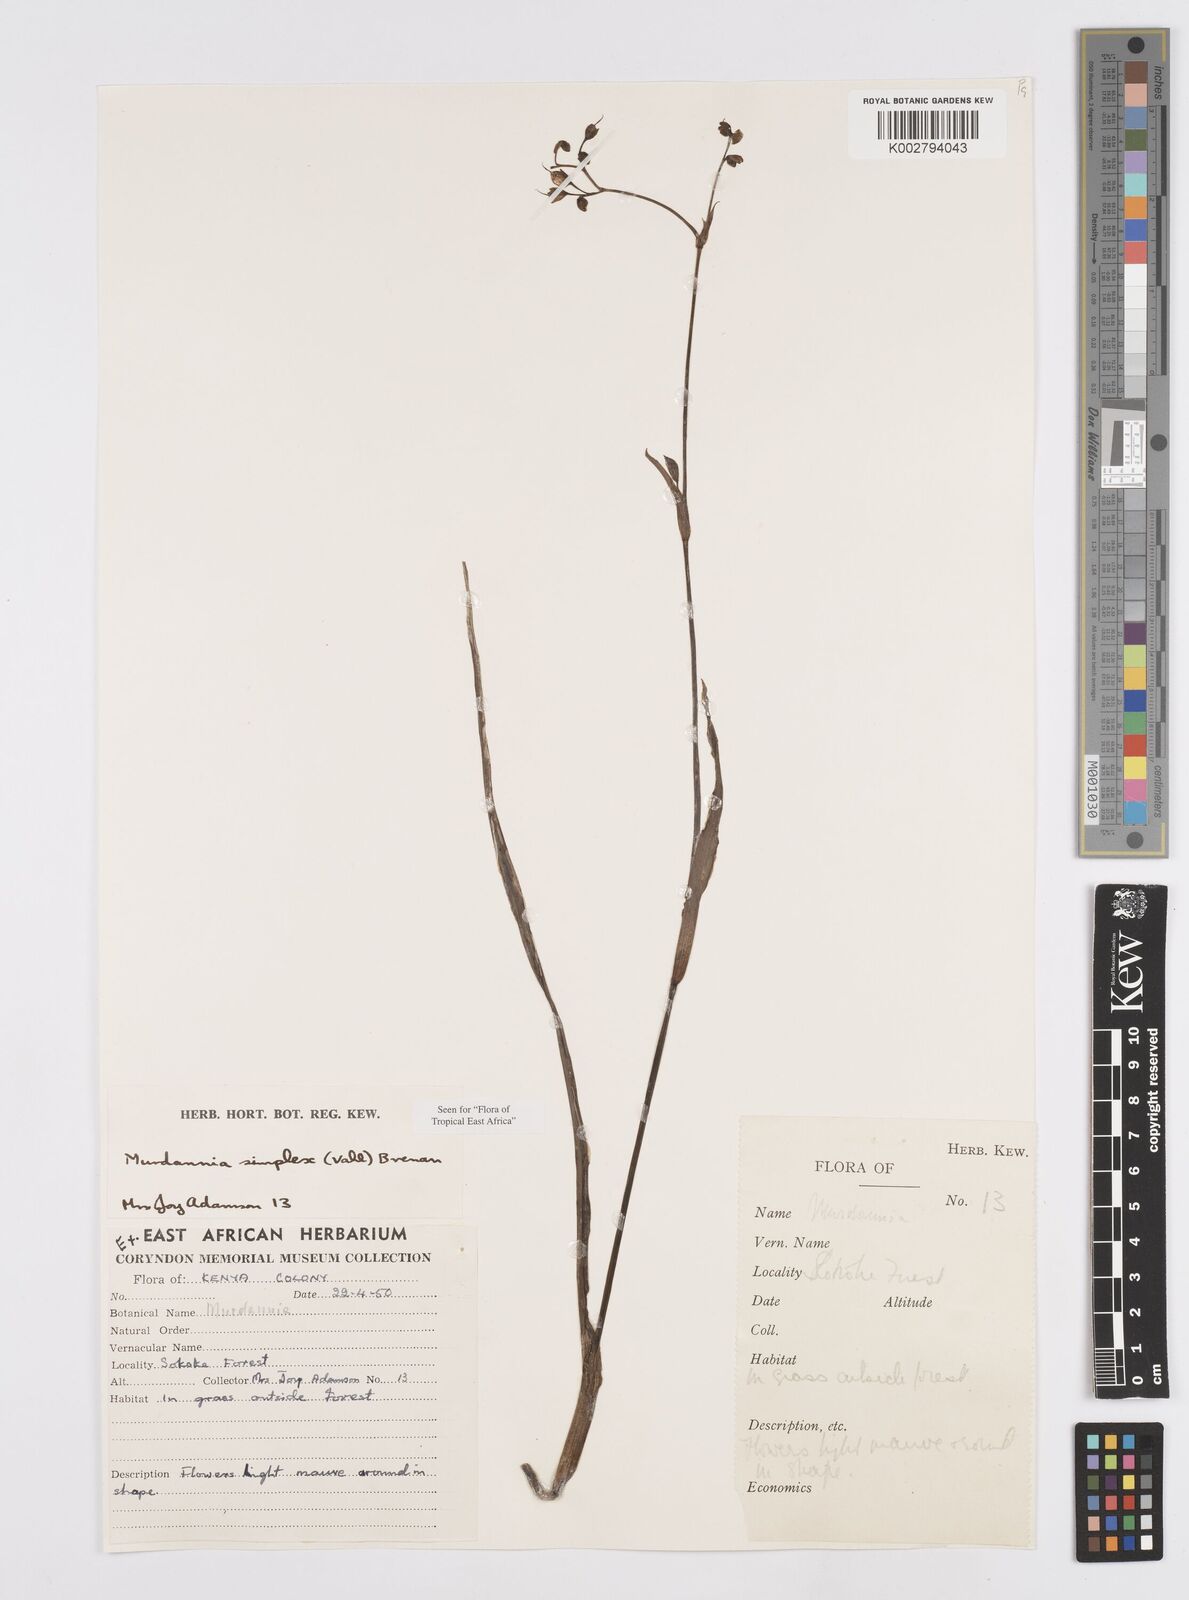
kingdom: Plantae
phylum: Tracheophyta
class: Liliopsida
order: Commelinales
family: Commelinaceae
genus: Murdannia
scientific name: Murdannia simplex
